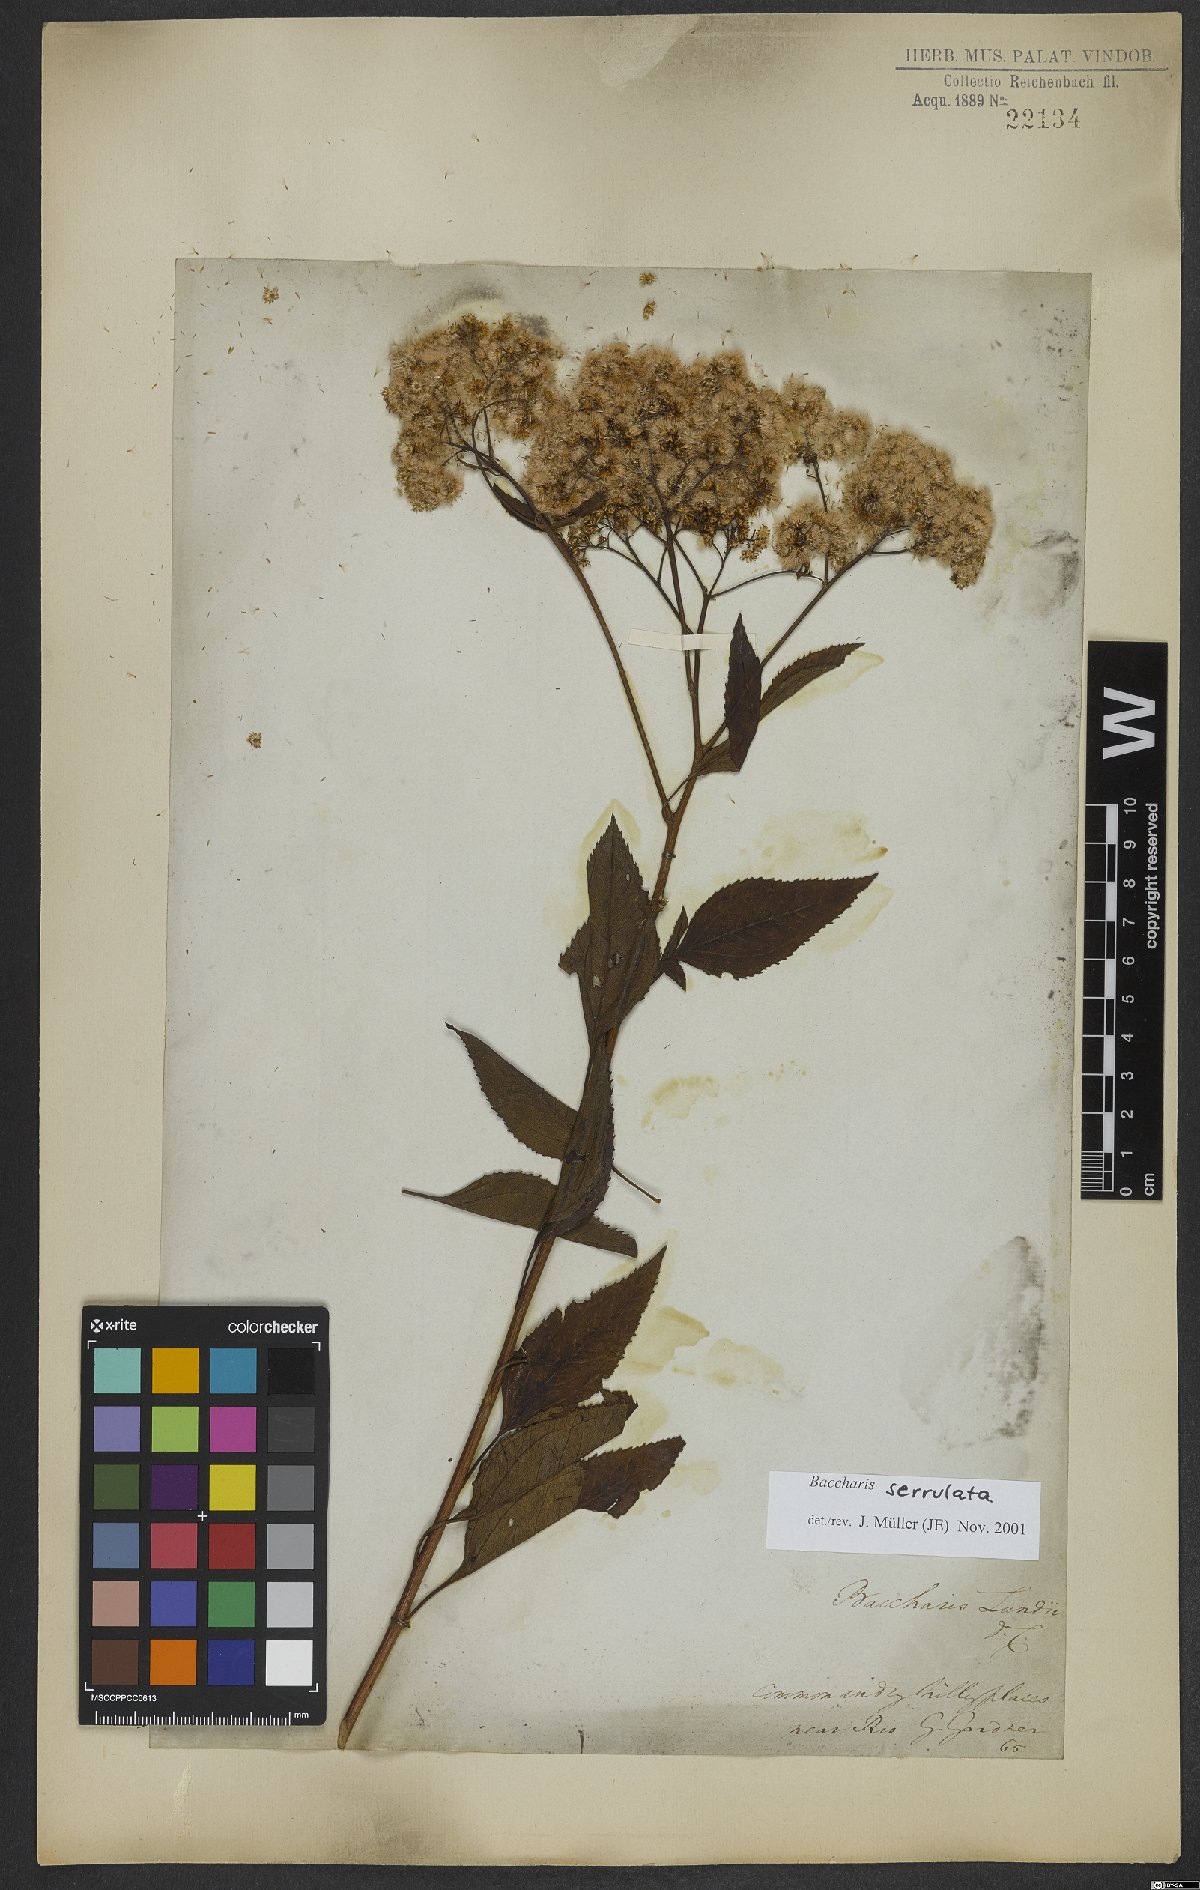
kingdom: Plantae
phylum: Tracheophyta
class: Magnoliopsida
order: Asterales
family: Asteraceae
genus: Archibaccharis
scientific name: Archibaccharis vulneraria
